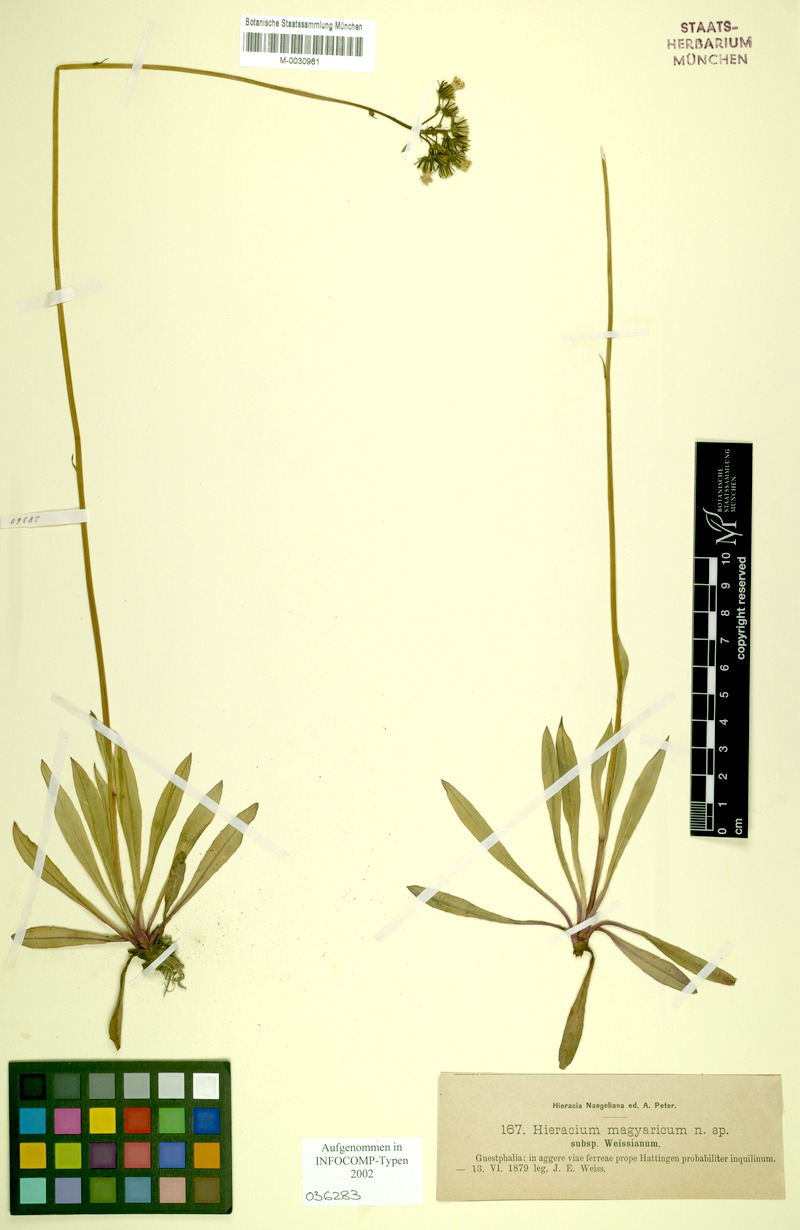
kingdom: Plantae
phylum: Tracheophyta
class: Magnoliopsida
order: Asterales
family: Asteraceae
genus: Pilosella
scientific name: Pilosella bauhini
